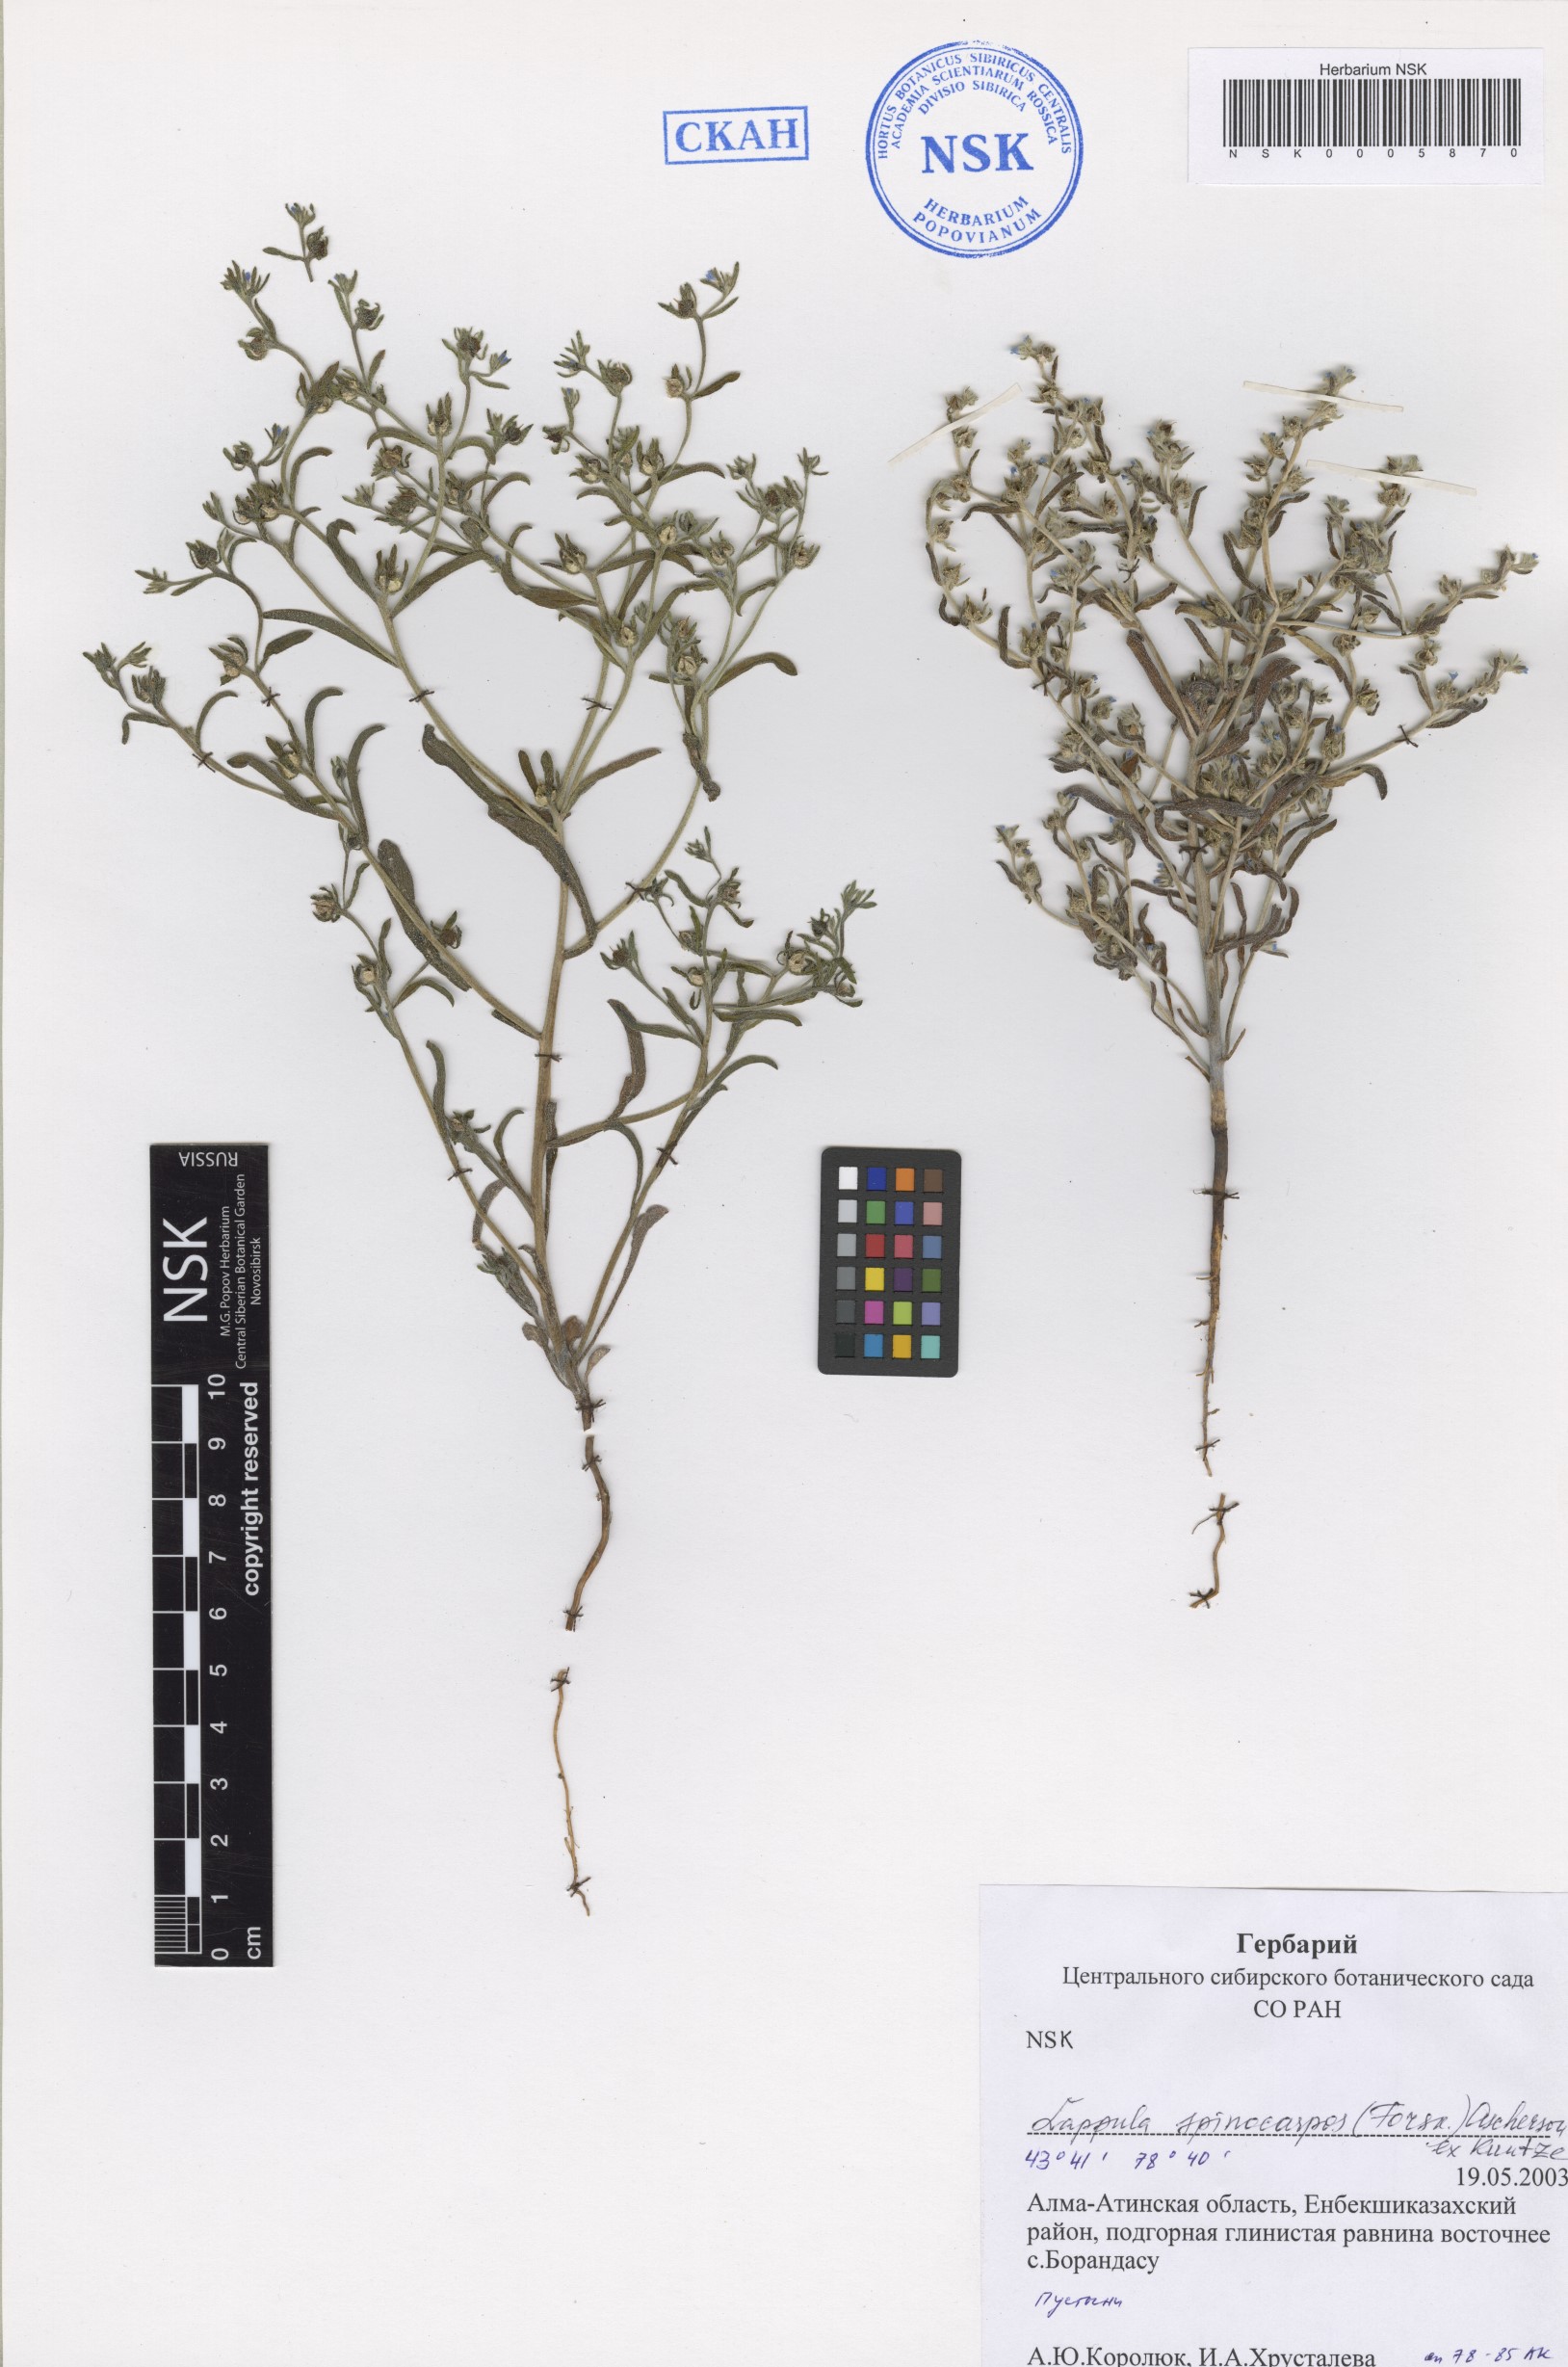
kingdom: Plantae
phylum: Tracheophyta
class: Magnoliopsida
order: Boraginales
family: Boraginaceae
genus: Lappula
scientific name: Lappula spinocarpos
